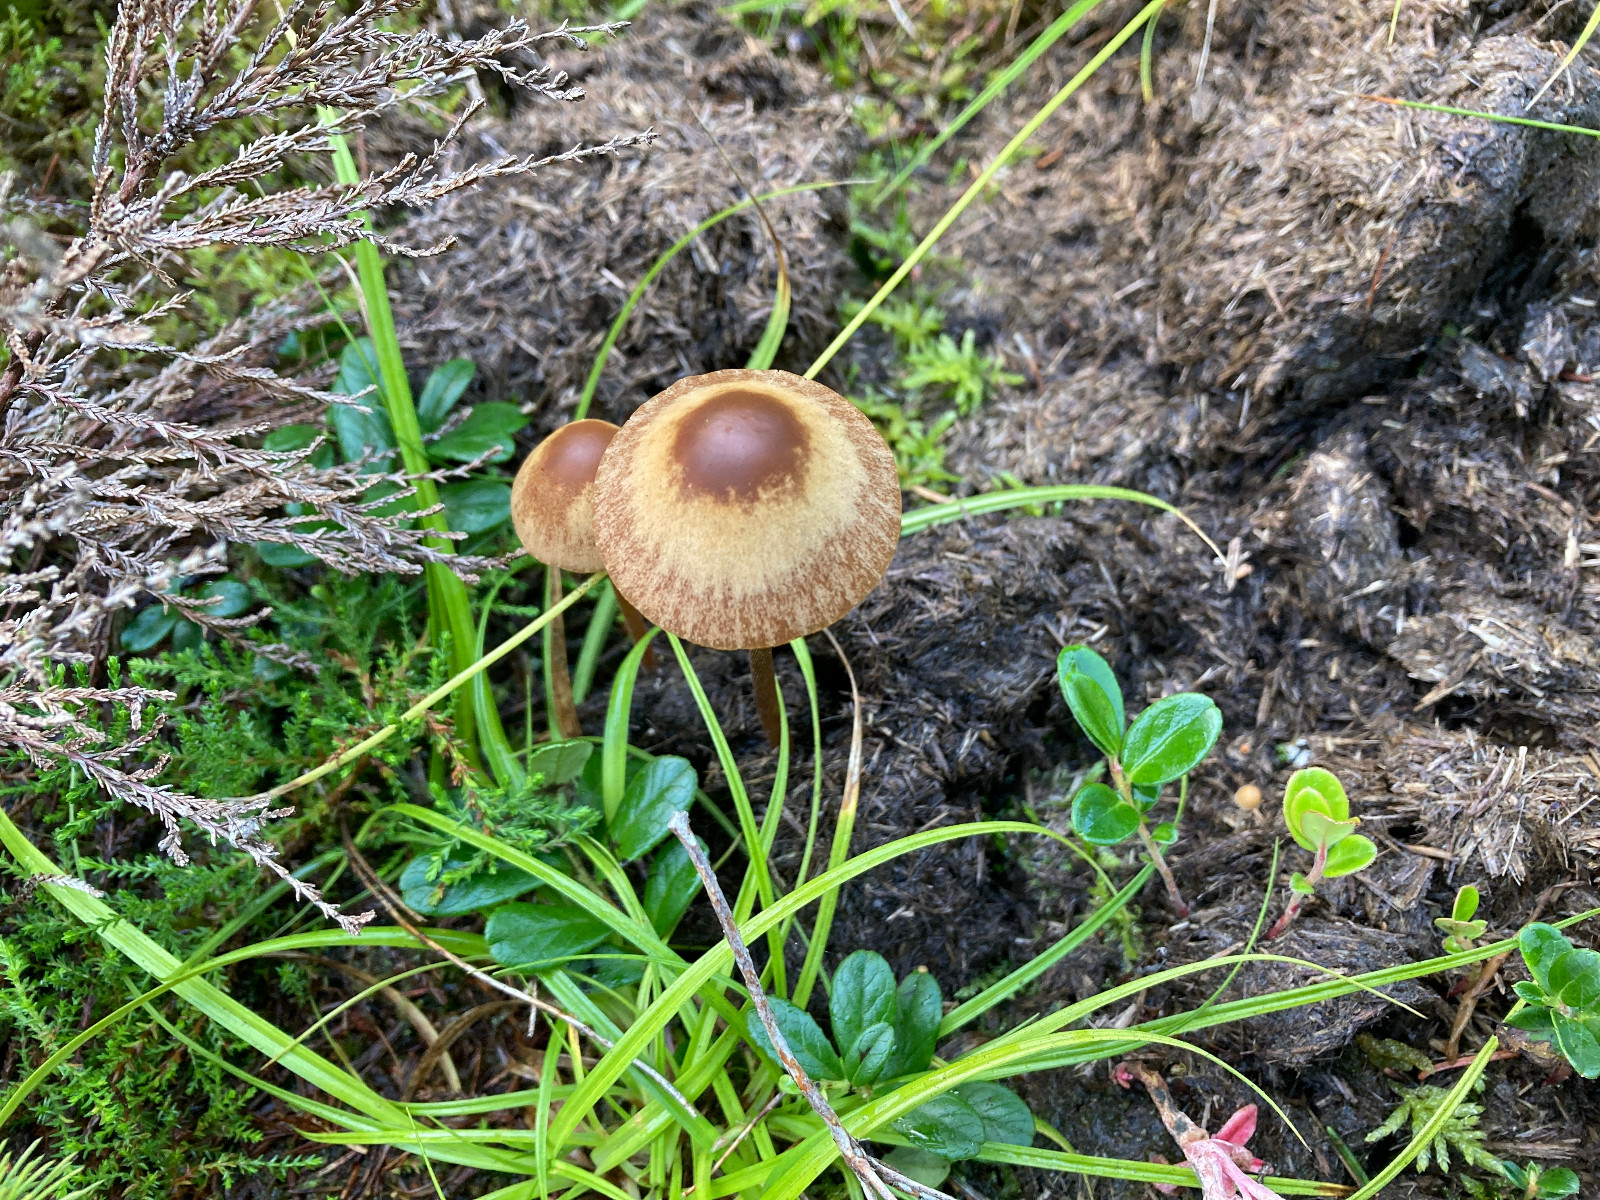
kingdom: Fungi
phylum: Basidiomycota
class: Agaricomycetes
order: Agaricales
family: Bolbitiaceae
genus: Conocybe
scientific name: Conocybe
